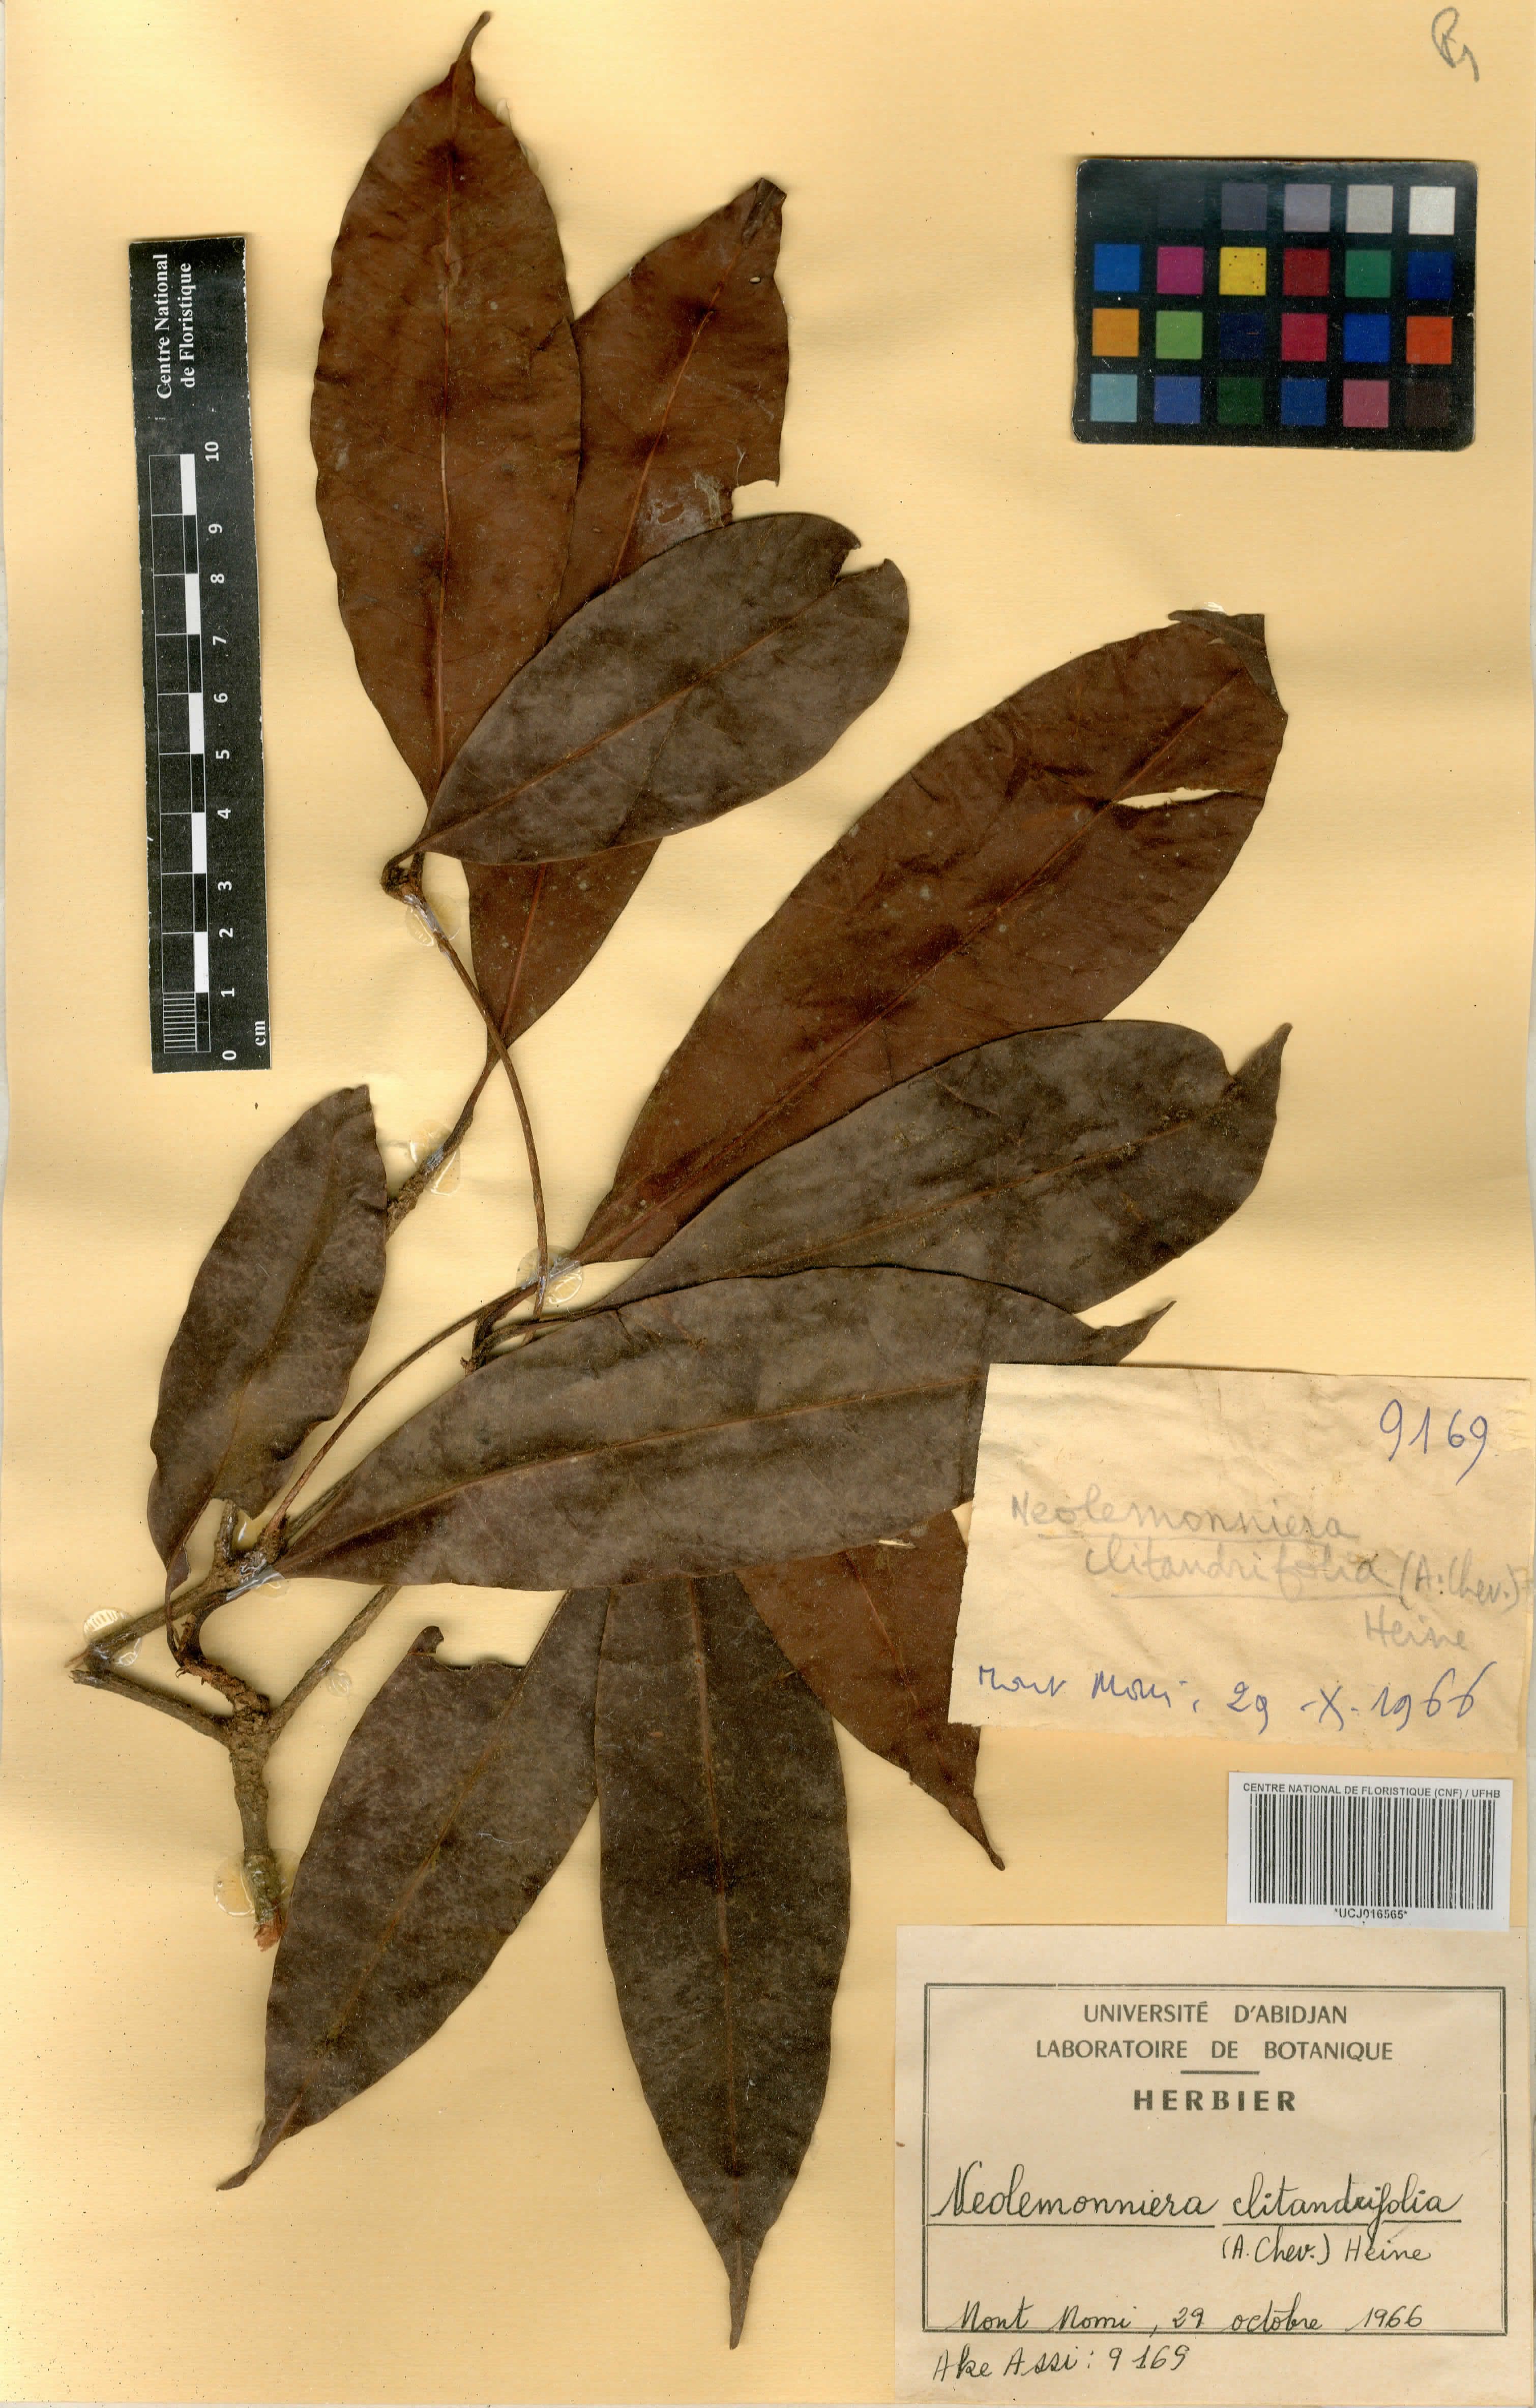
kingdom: Plantae
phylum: Tracheophyta
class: Magnoliopsida
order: Ericales
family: Sapotaceae
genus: Neolemonniera
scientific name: Neolemonniera clitandrifolia
